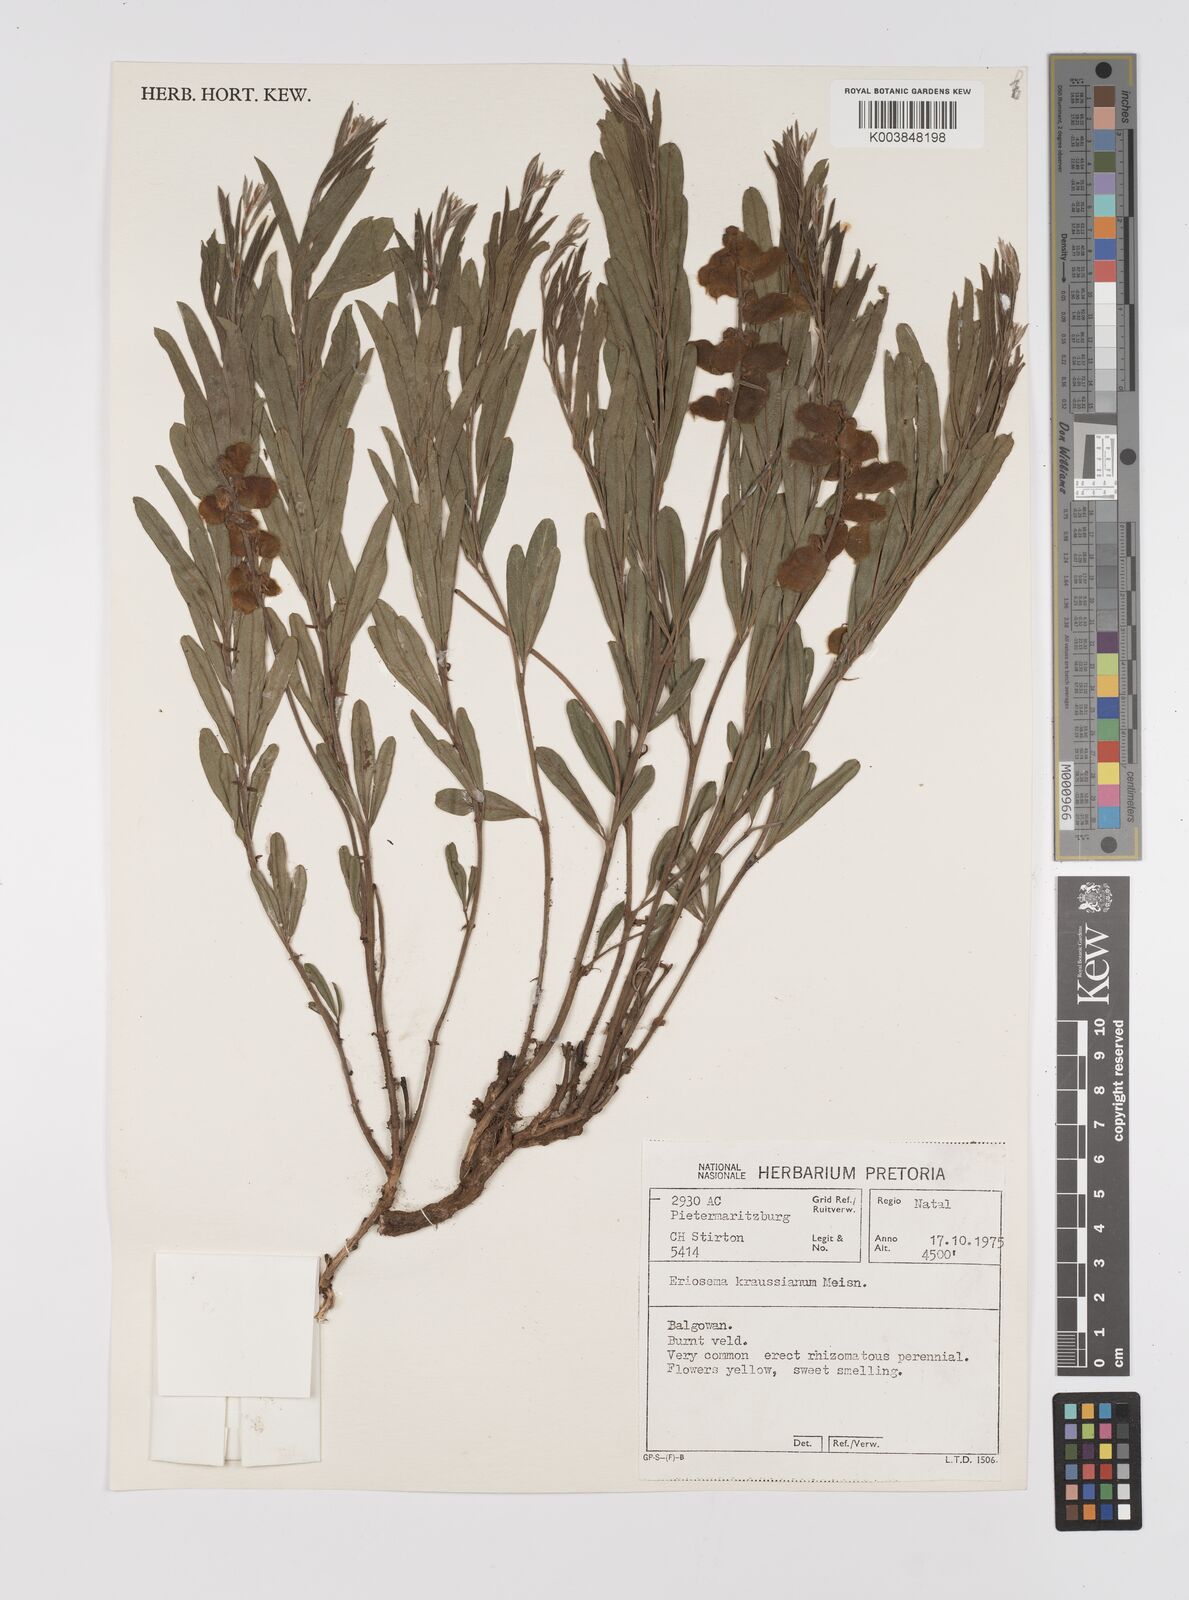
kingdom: Plantae
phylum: Tracheophyta
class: Magnoliopsida
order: Fabales
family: Fabaceae
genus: Eriosema
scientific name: Eriosema kraussianum
